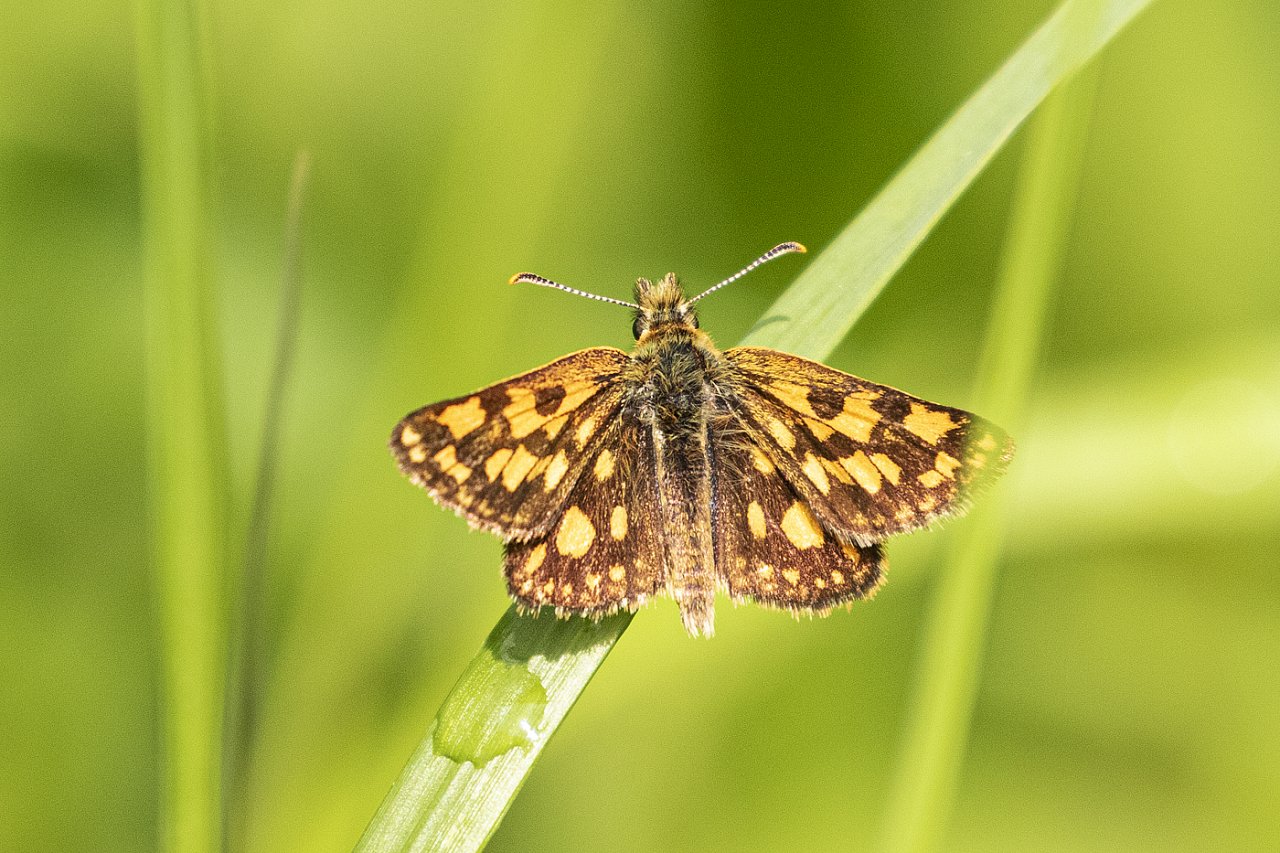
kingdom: Animalia
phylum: Arthropoda
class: Insecta
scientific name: Insecta
